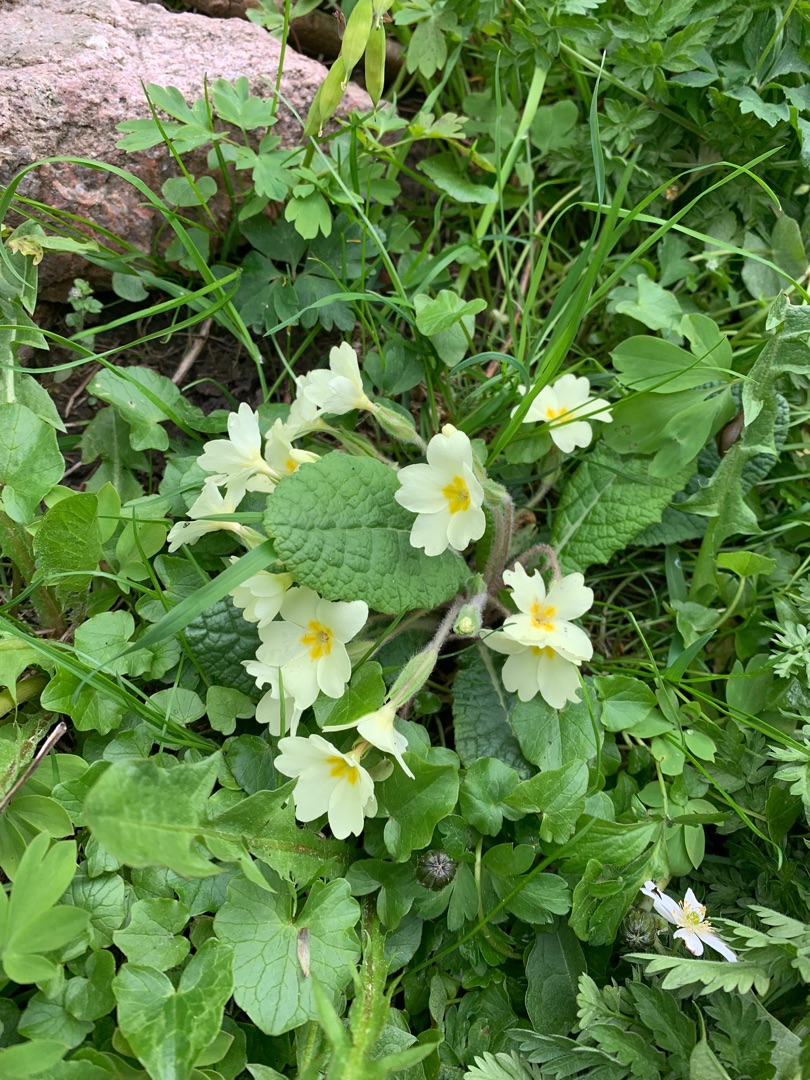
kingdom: Plantae
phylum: Tracheophyta
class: Magnoliopsida
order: Ericales
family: Primulaceae
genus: Primula
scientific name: Primula vulgaris
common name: Storblomstret kodriver
